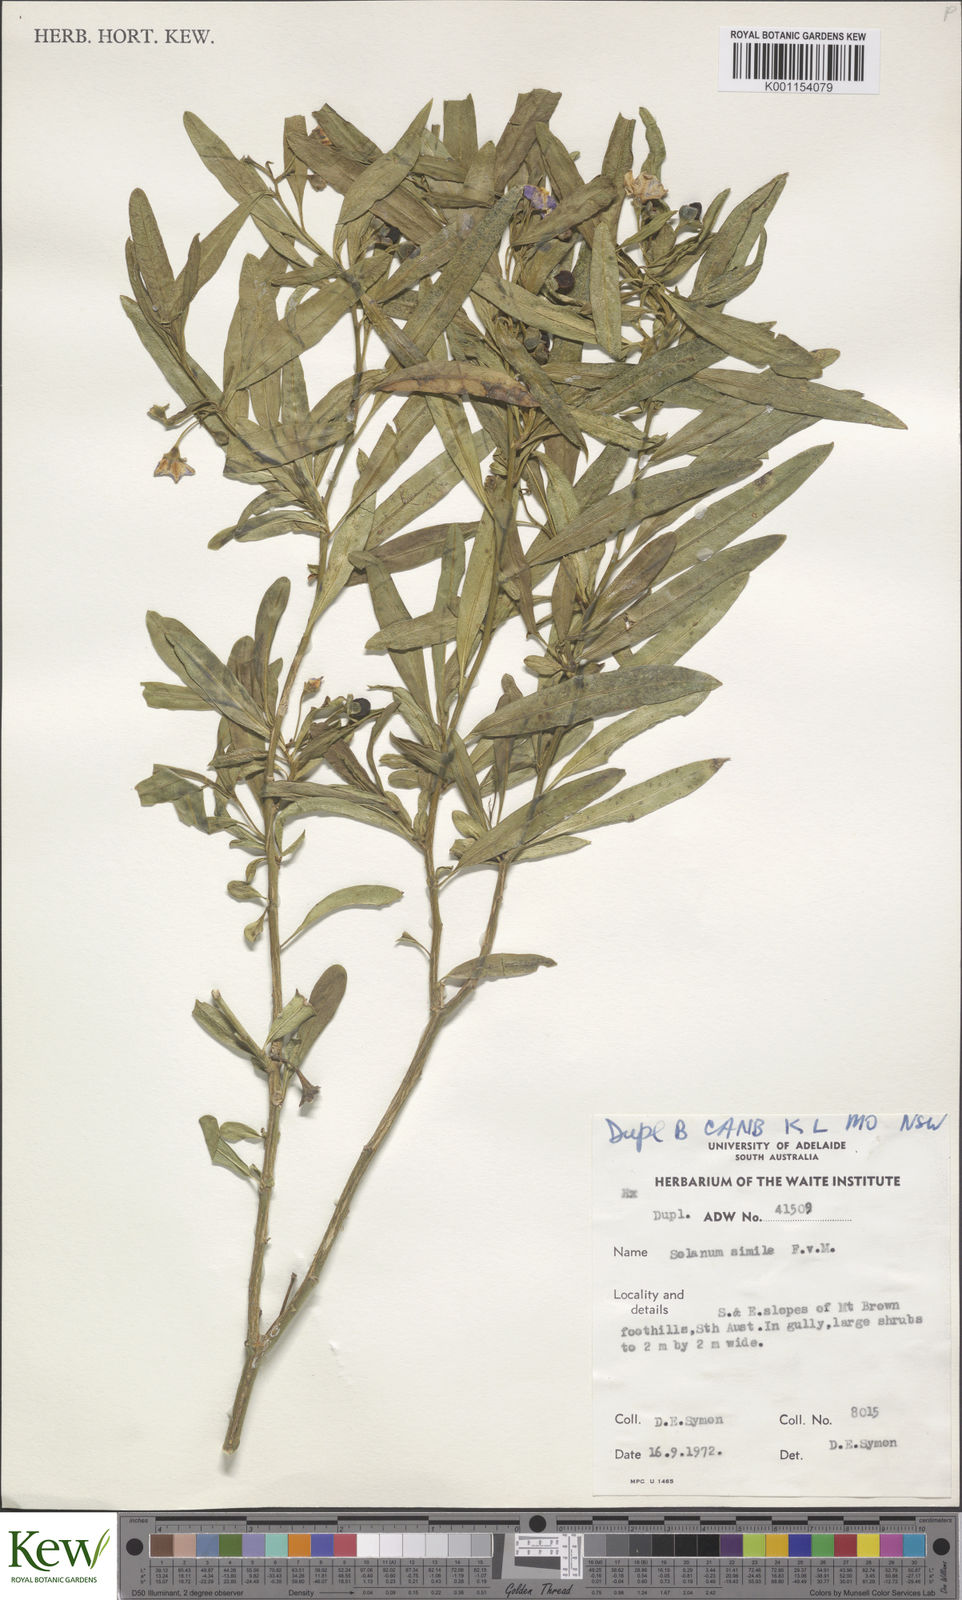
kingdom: Plantae
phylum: Tracheophyta
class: Magnoliopsida
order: Solanales
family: Solanaceae
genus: Solanum
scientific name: Solanum simile
